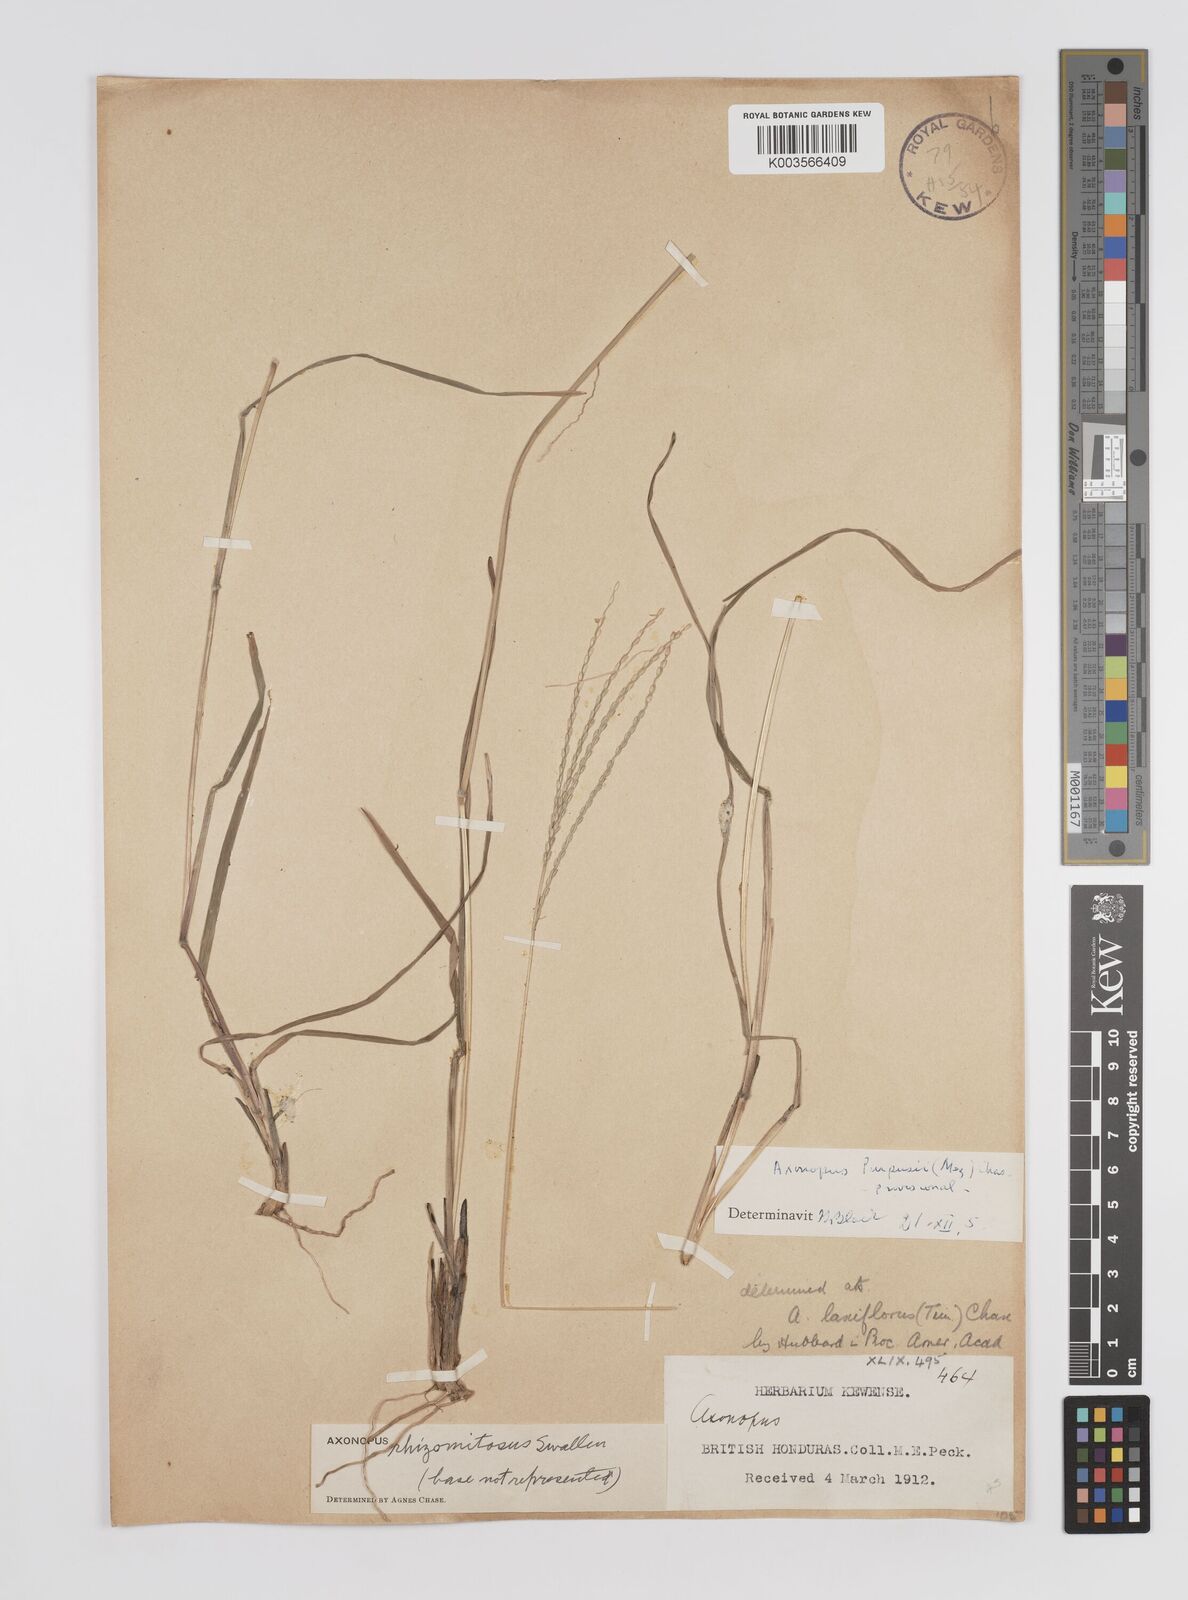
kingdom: Plantae
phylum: Tracheophyta
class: Liliopsida
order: Poales
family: Poaceae
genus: Axonopus
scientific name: Axonopus purpusii
